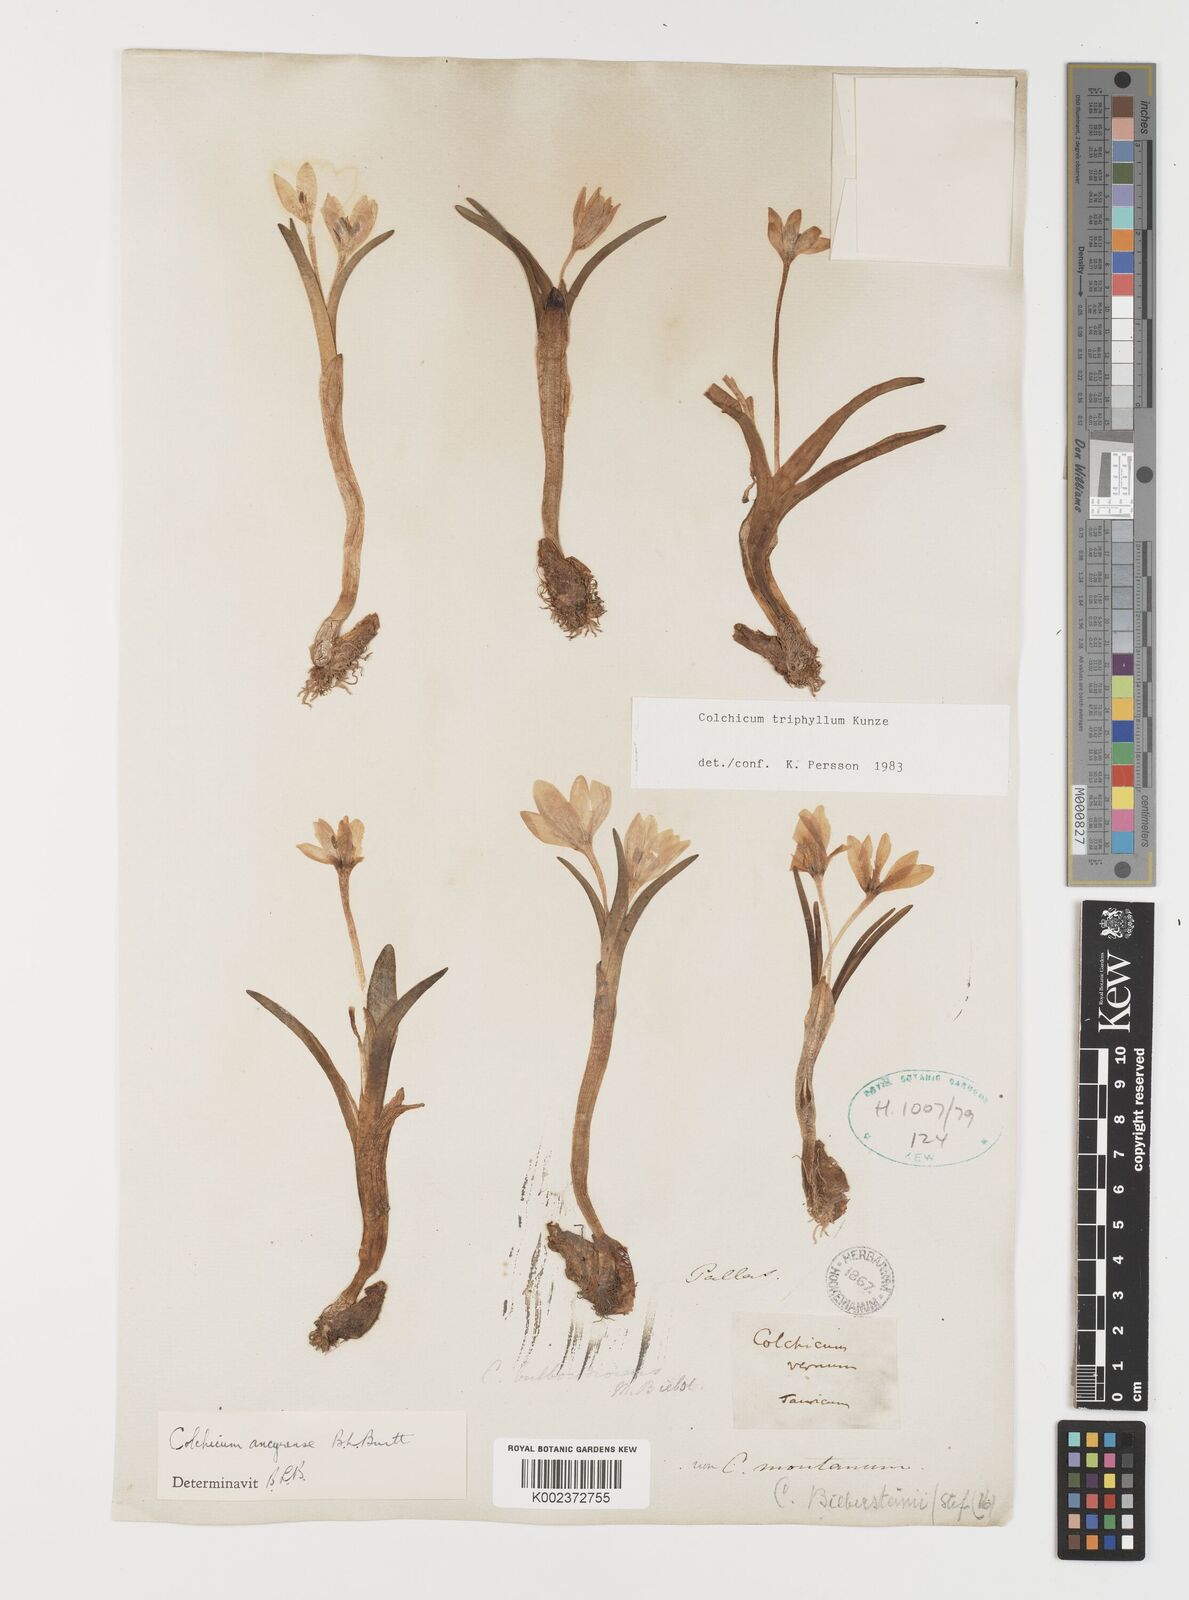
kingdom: Plantae
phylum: Tracheophyta
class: Liliopsida
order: Liliales
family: Colchicaceae
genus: Colchicum
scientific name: Colchicum triphyllum
